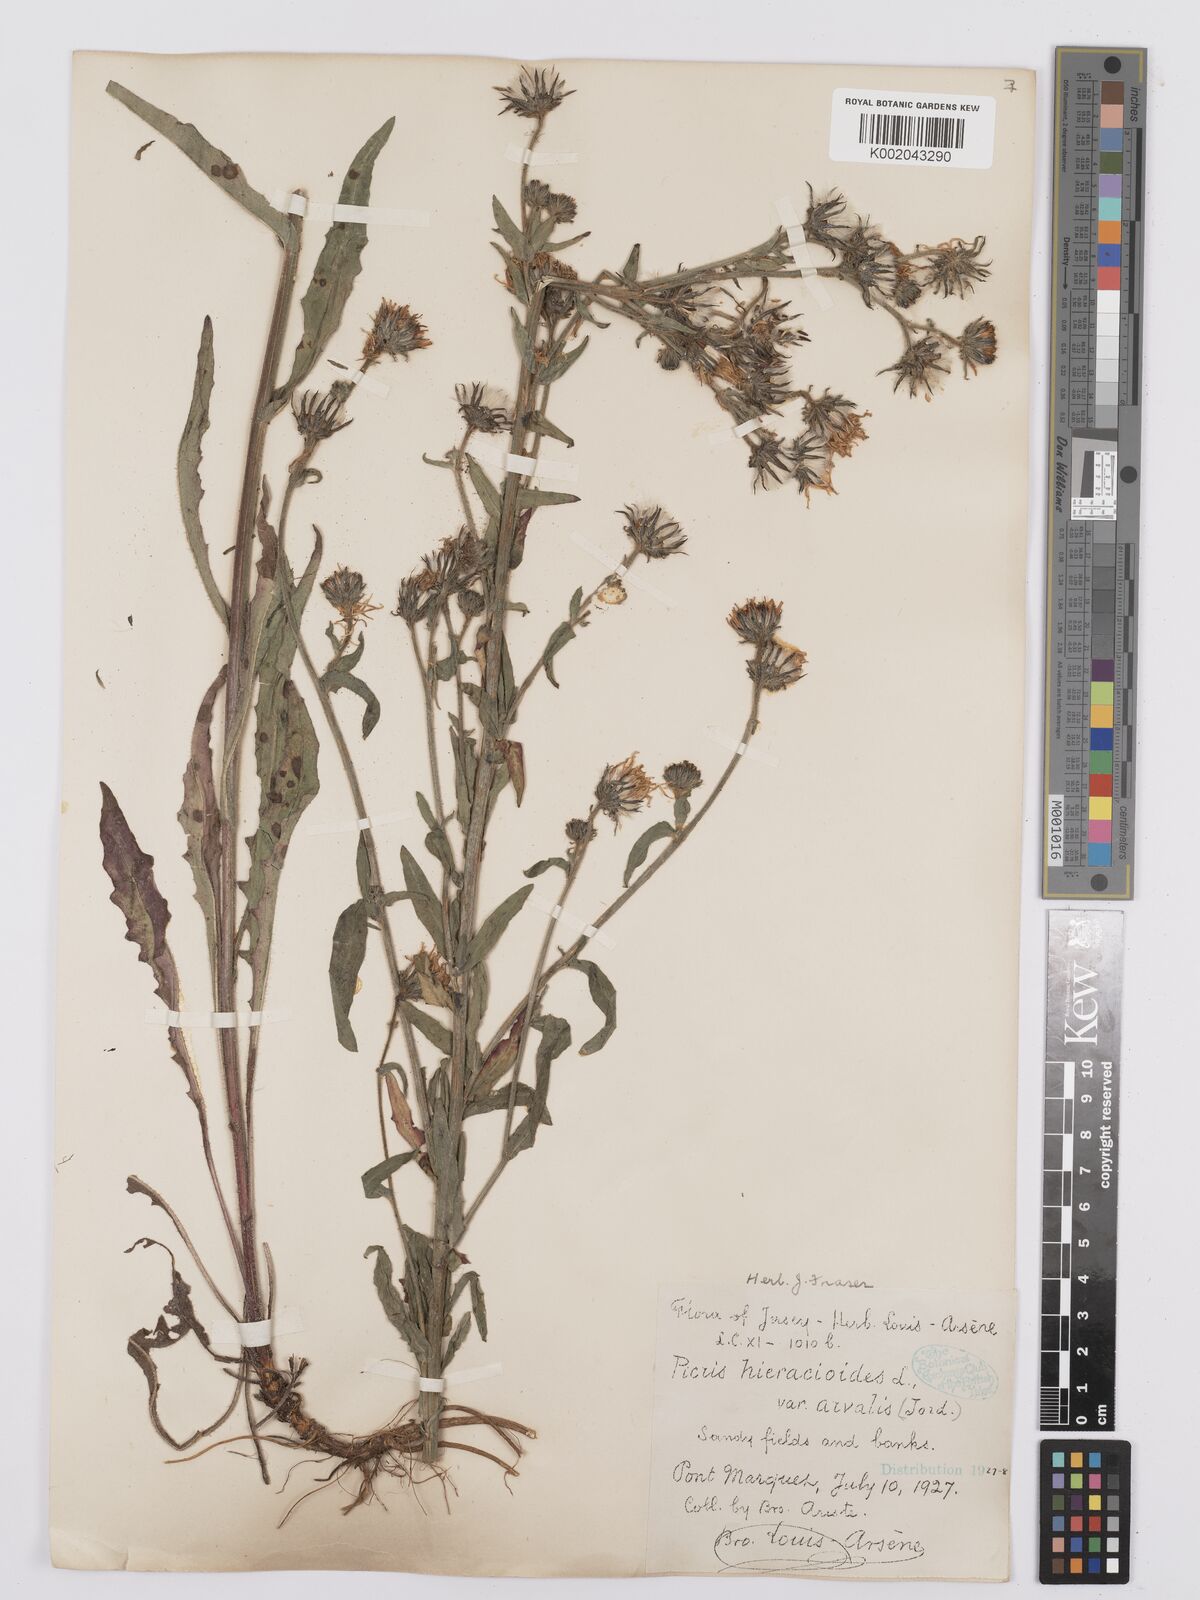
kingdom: Plantae
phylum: Tracheophyta
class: Magnoliopsida
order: Asterales
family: Asteraceae
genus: Picris
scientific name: Picris hieracioides
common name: Hawkweed oxtongue
